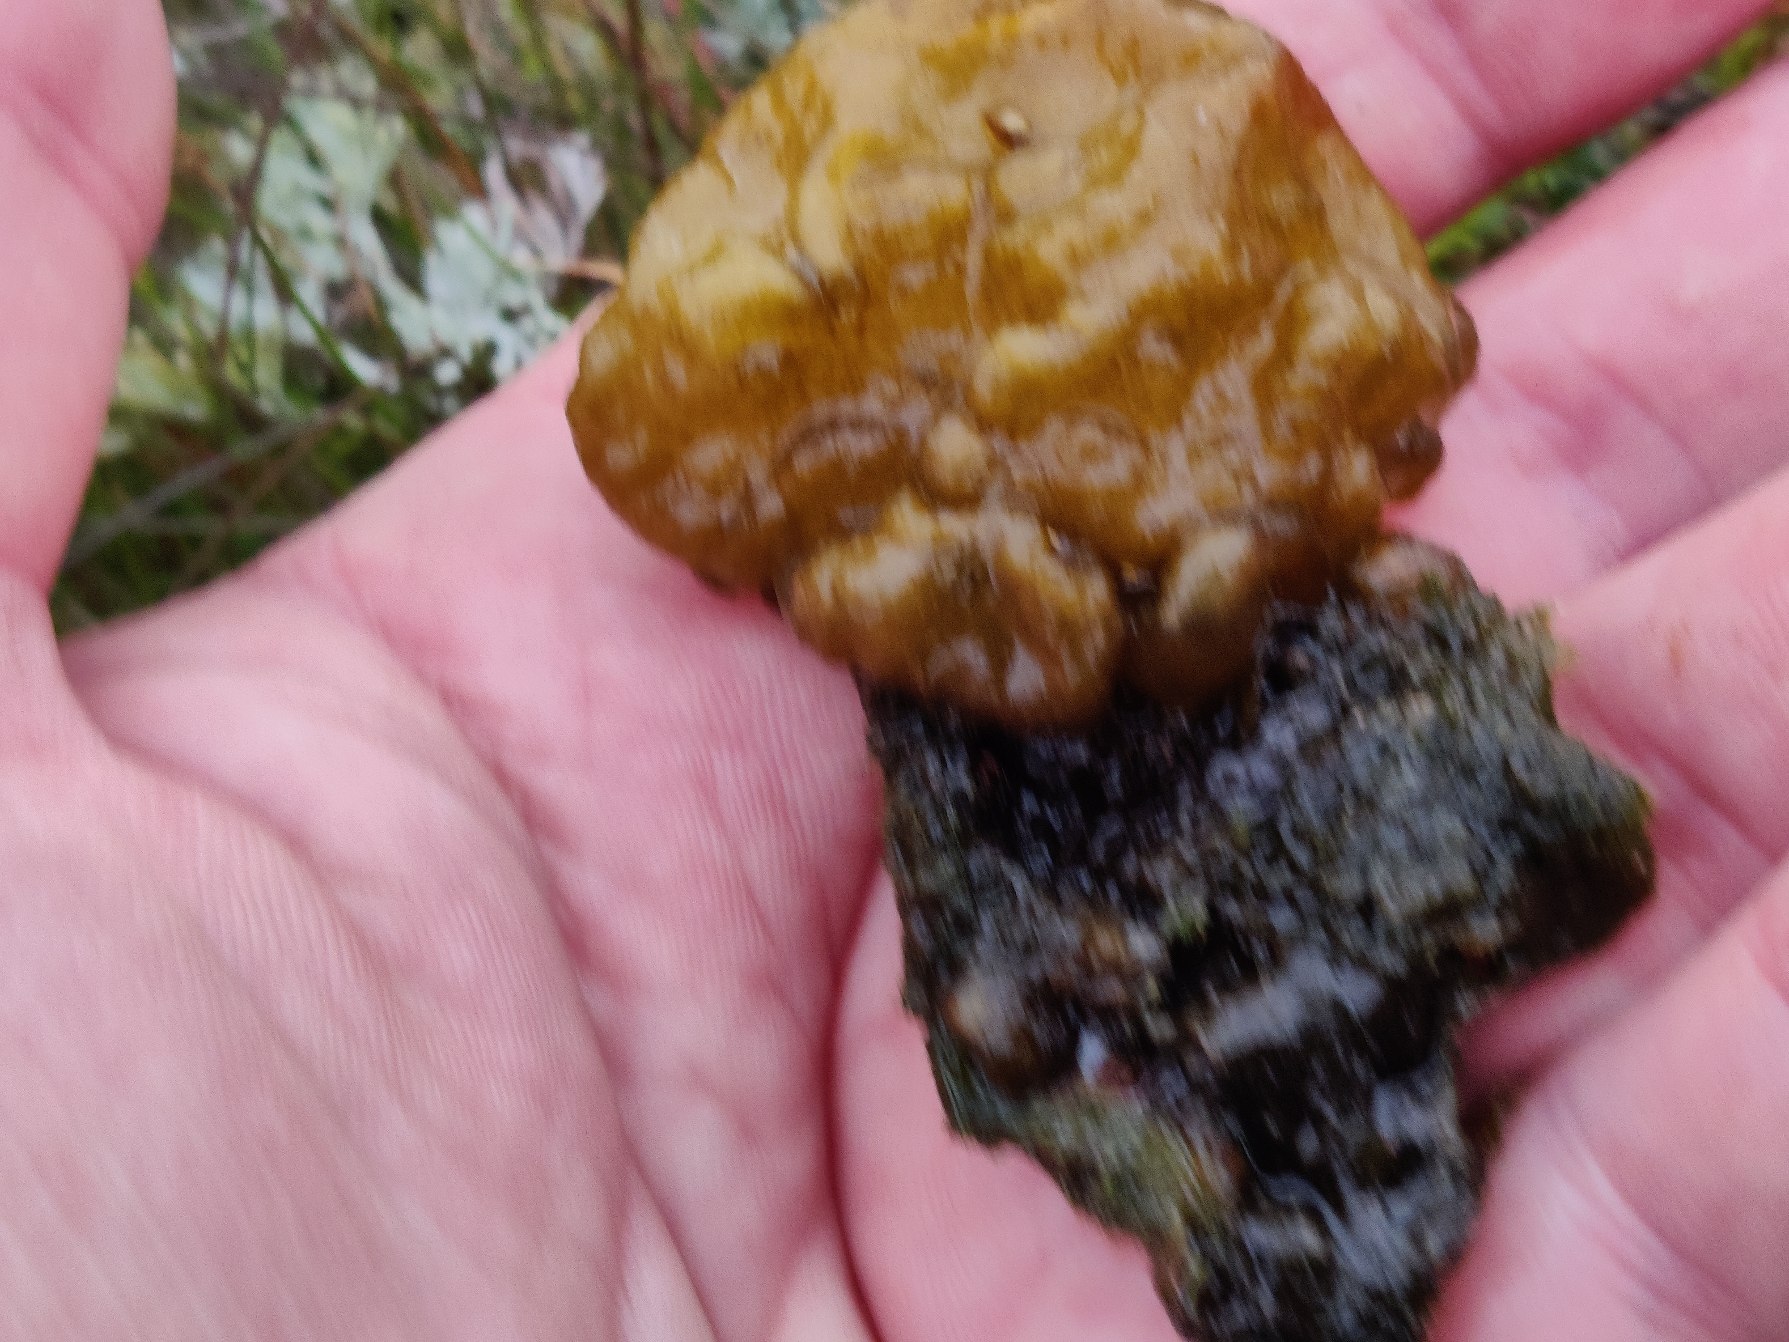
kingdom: Chromista
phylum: Ochrophyta
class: Phaeophyceae
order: Scytosiphonales
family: Scytosiphonaceae
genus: Colpomenia
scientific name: Colpomenia peregrina
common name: Østerstyv
